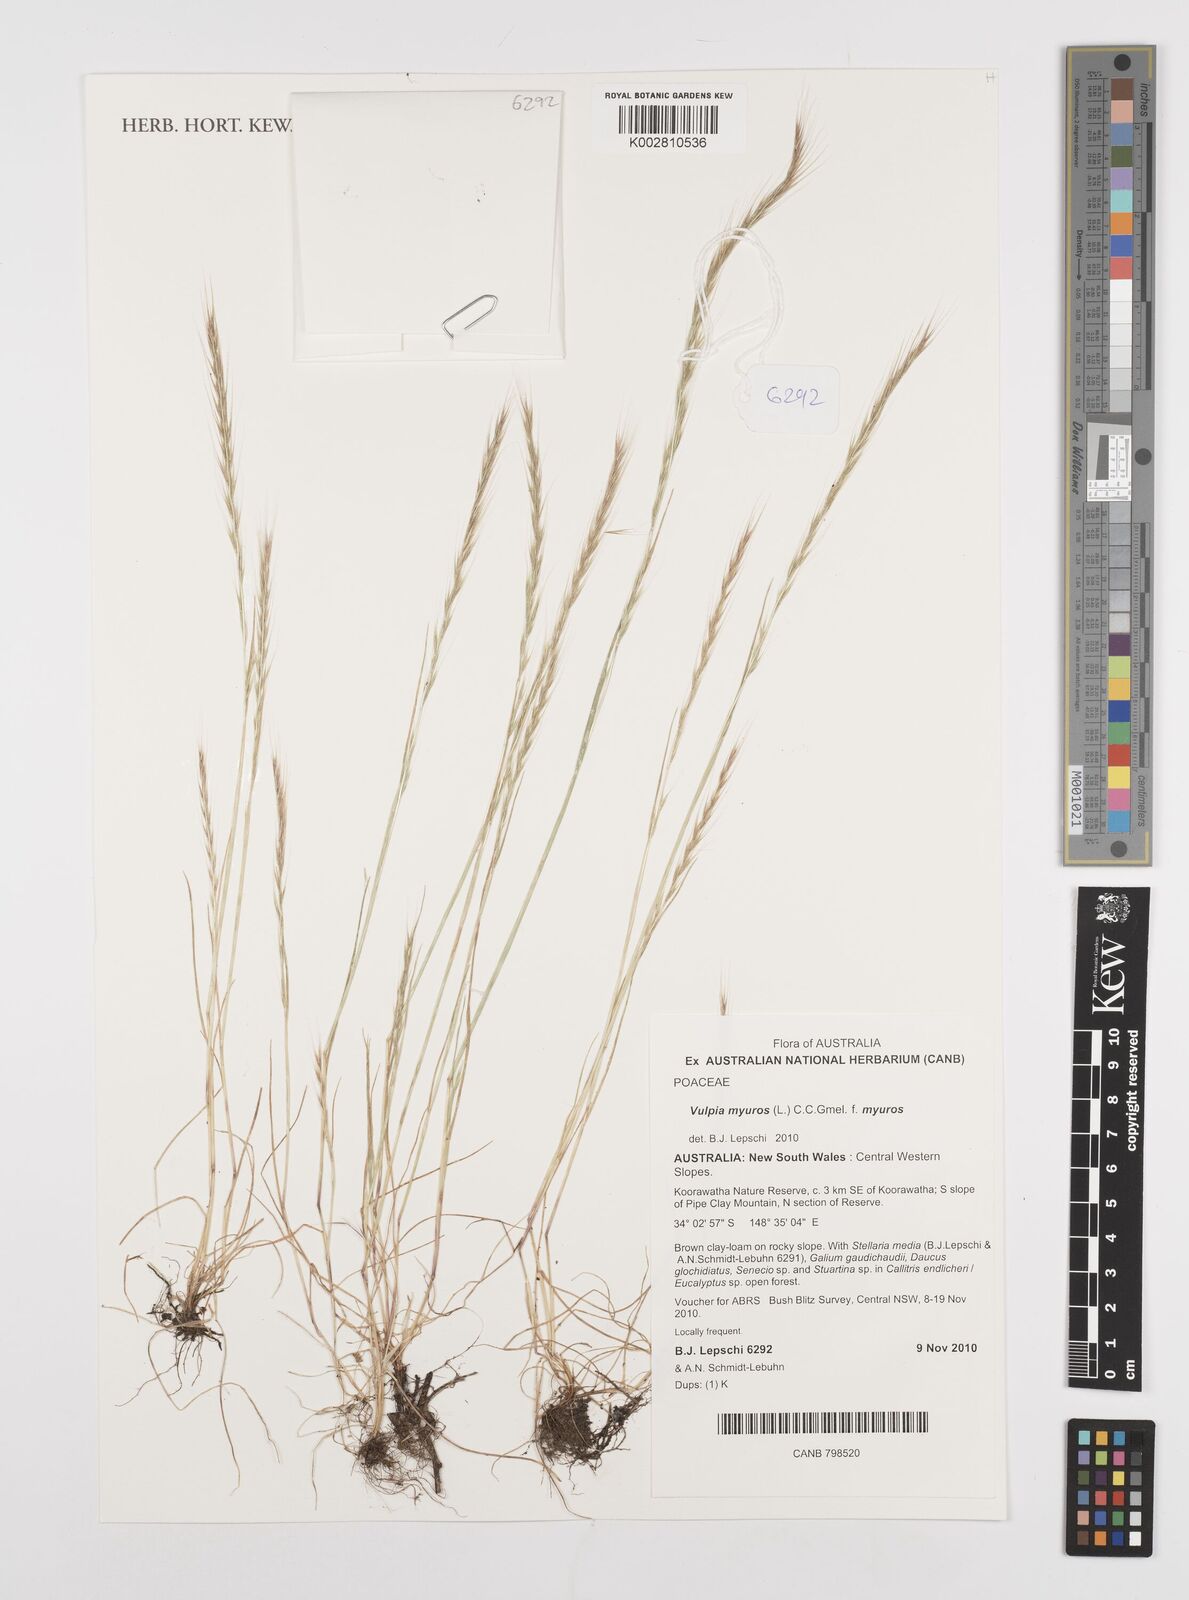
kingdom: Plantae
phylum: Tracheophyta
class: Liliopsida
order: Poales
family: Poaceae
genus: Festuca
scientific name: Festuca myuros
